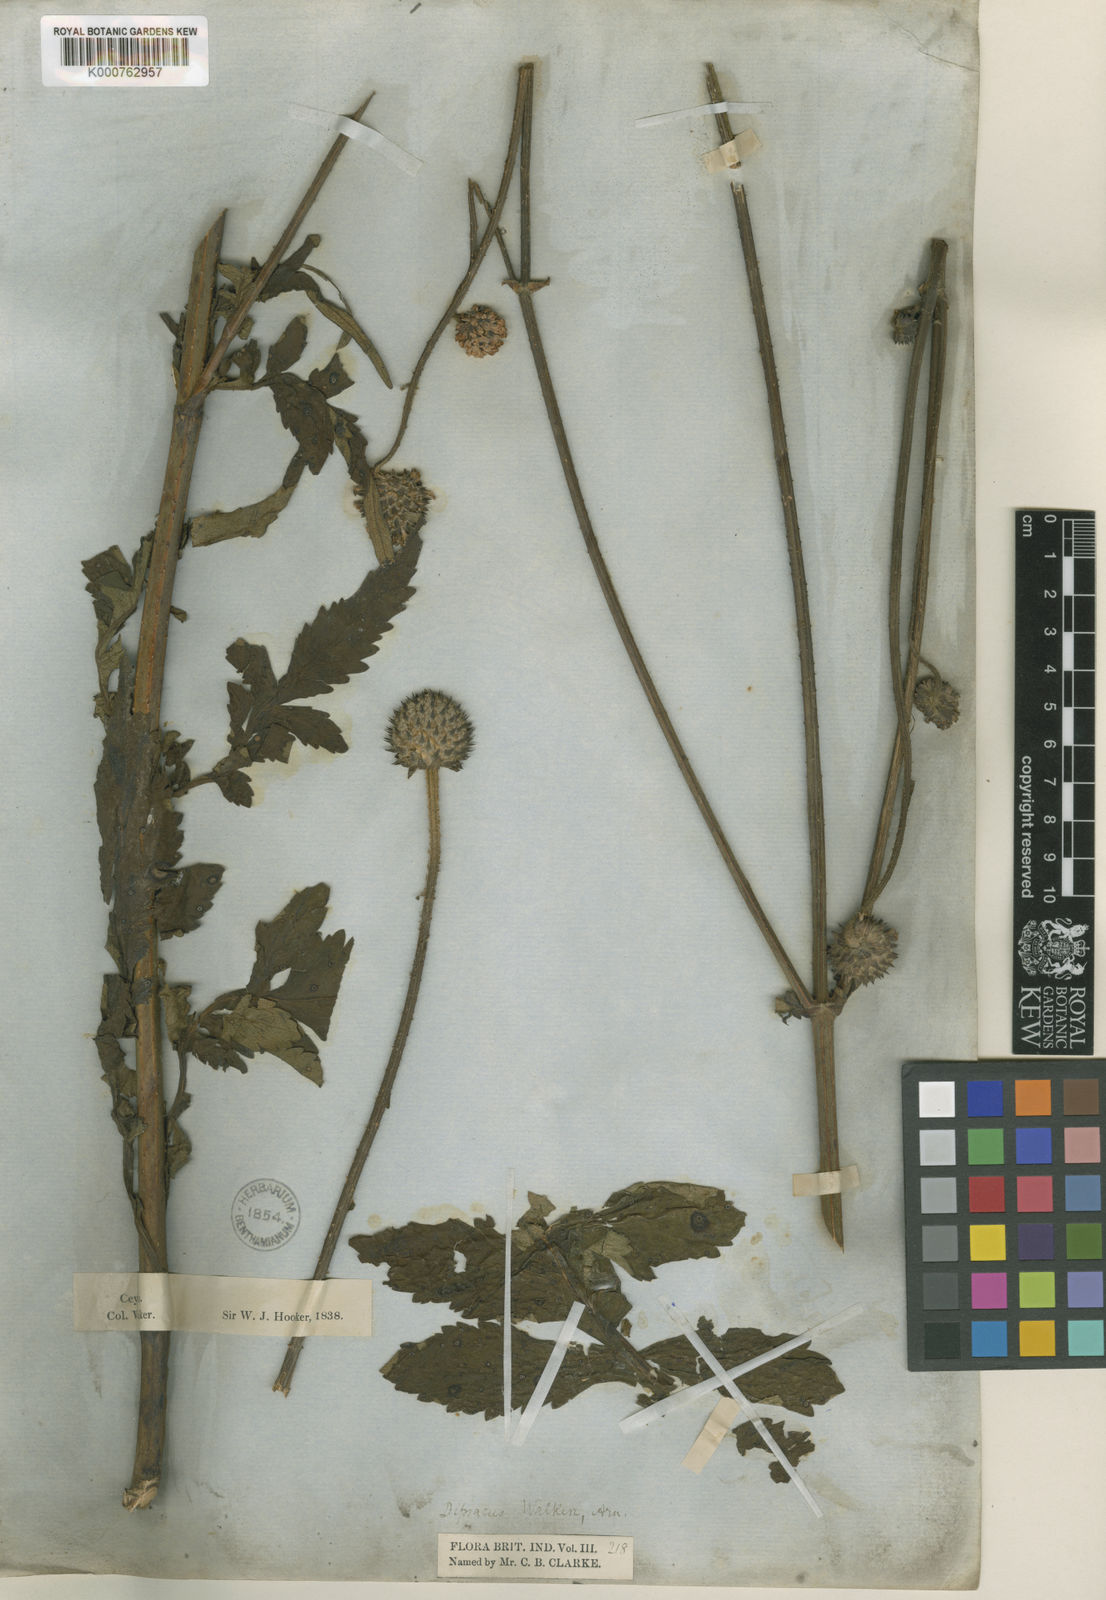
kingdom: Plantae
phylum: Tracheophyta
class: Magnoliopsida
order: Dipsacales
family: Caprifoliaceae
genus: Dipsacus
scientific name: Dipsacus walkeri
